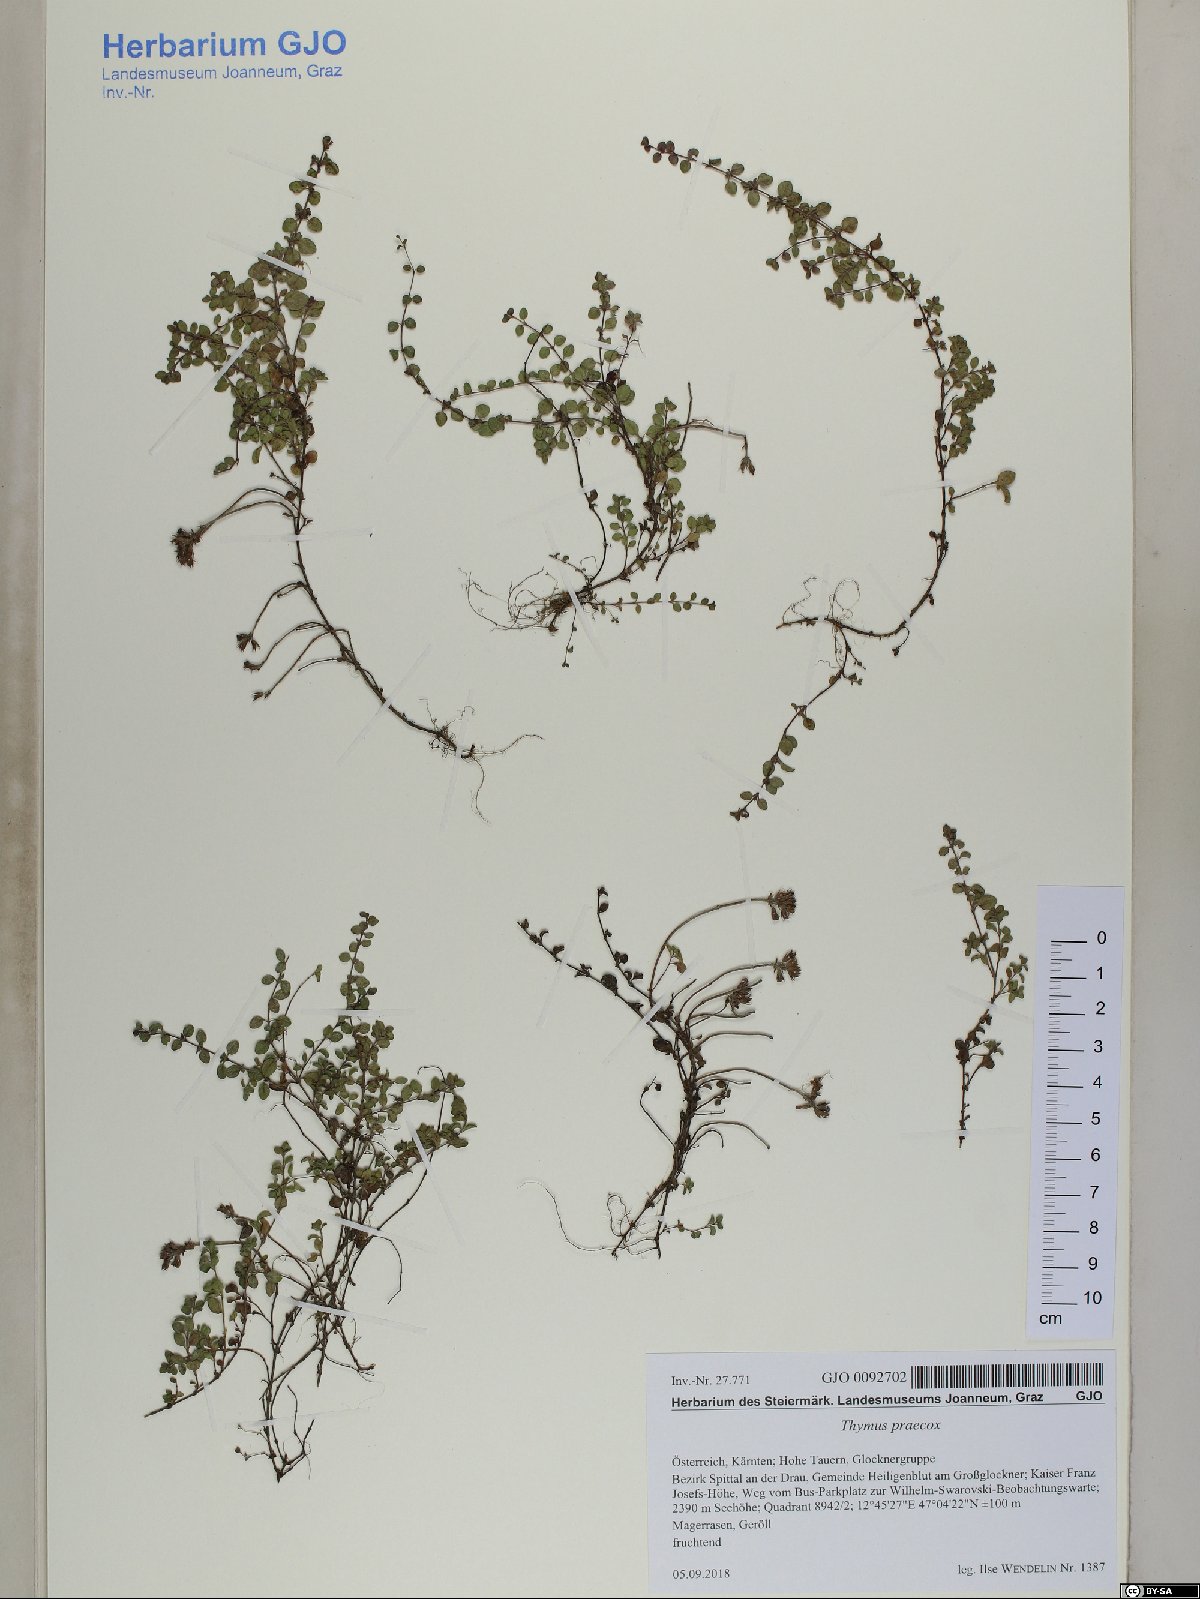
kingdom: Plantae
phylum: Tracheophyta
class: Magnoliopsida
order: Lamiales
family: Lamiaceae
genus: Thymus
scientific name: Thymus praecox
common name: Wild thyme
